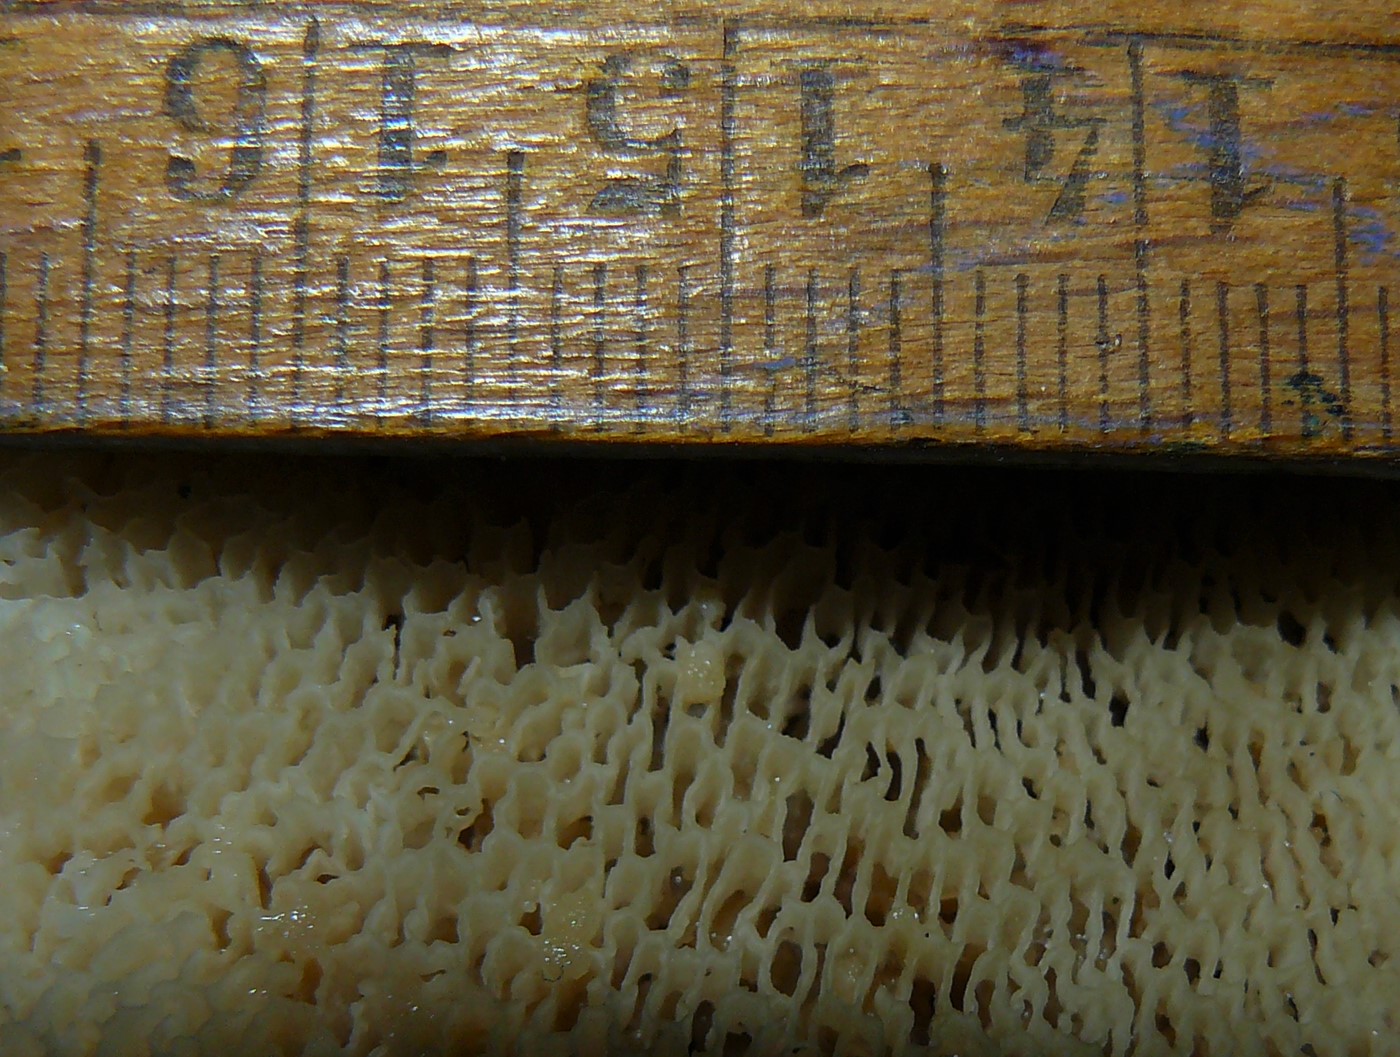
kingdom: Fungi
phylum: Basidiomycota
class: Agaricomycetes
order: Polyporales
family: Polyporaceae
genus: Cerioporus
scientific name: Cerioporus squamosus
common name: skællet stilkporesvamp
